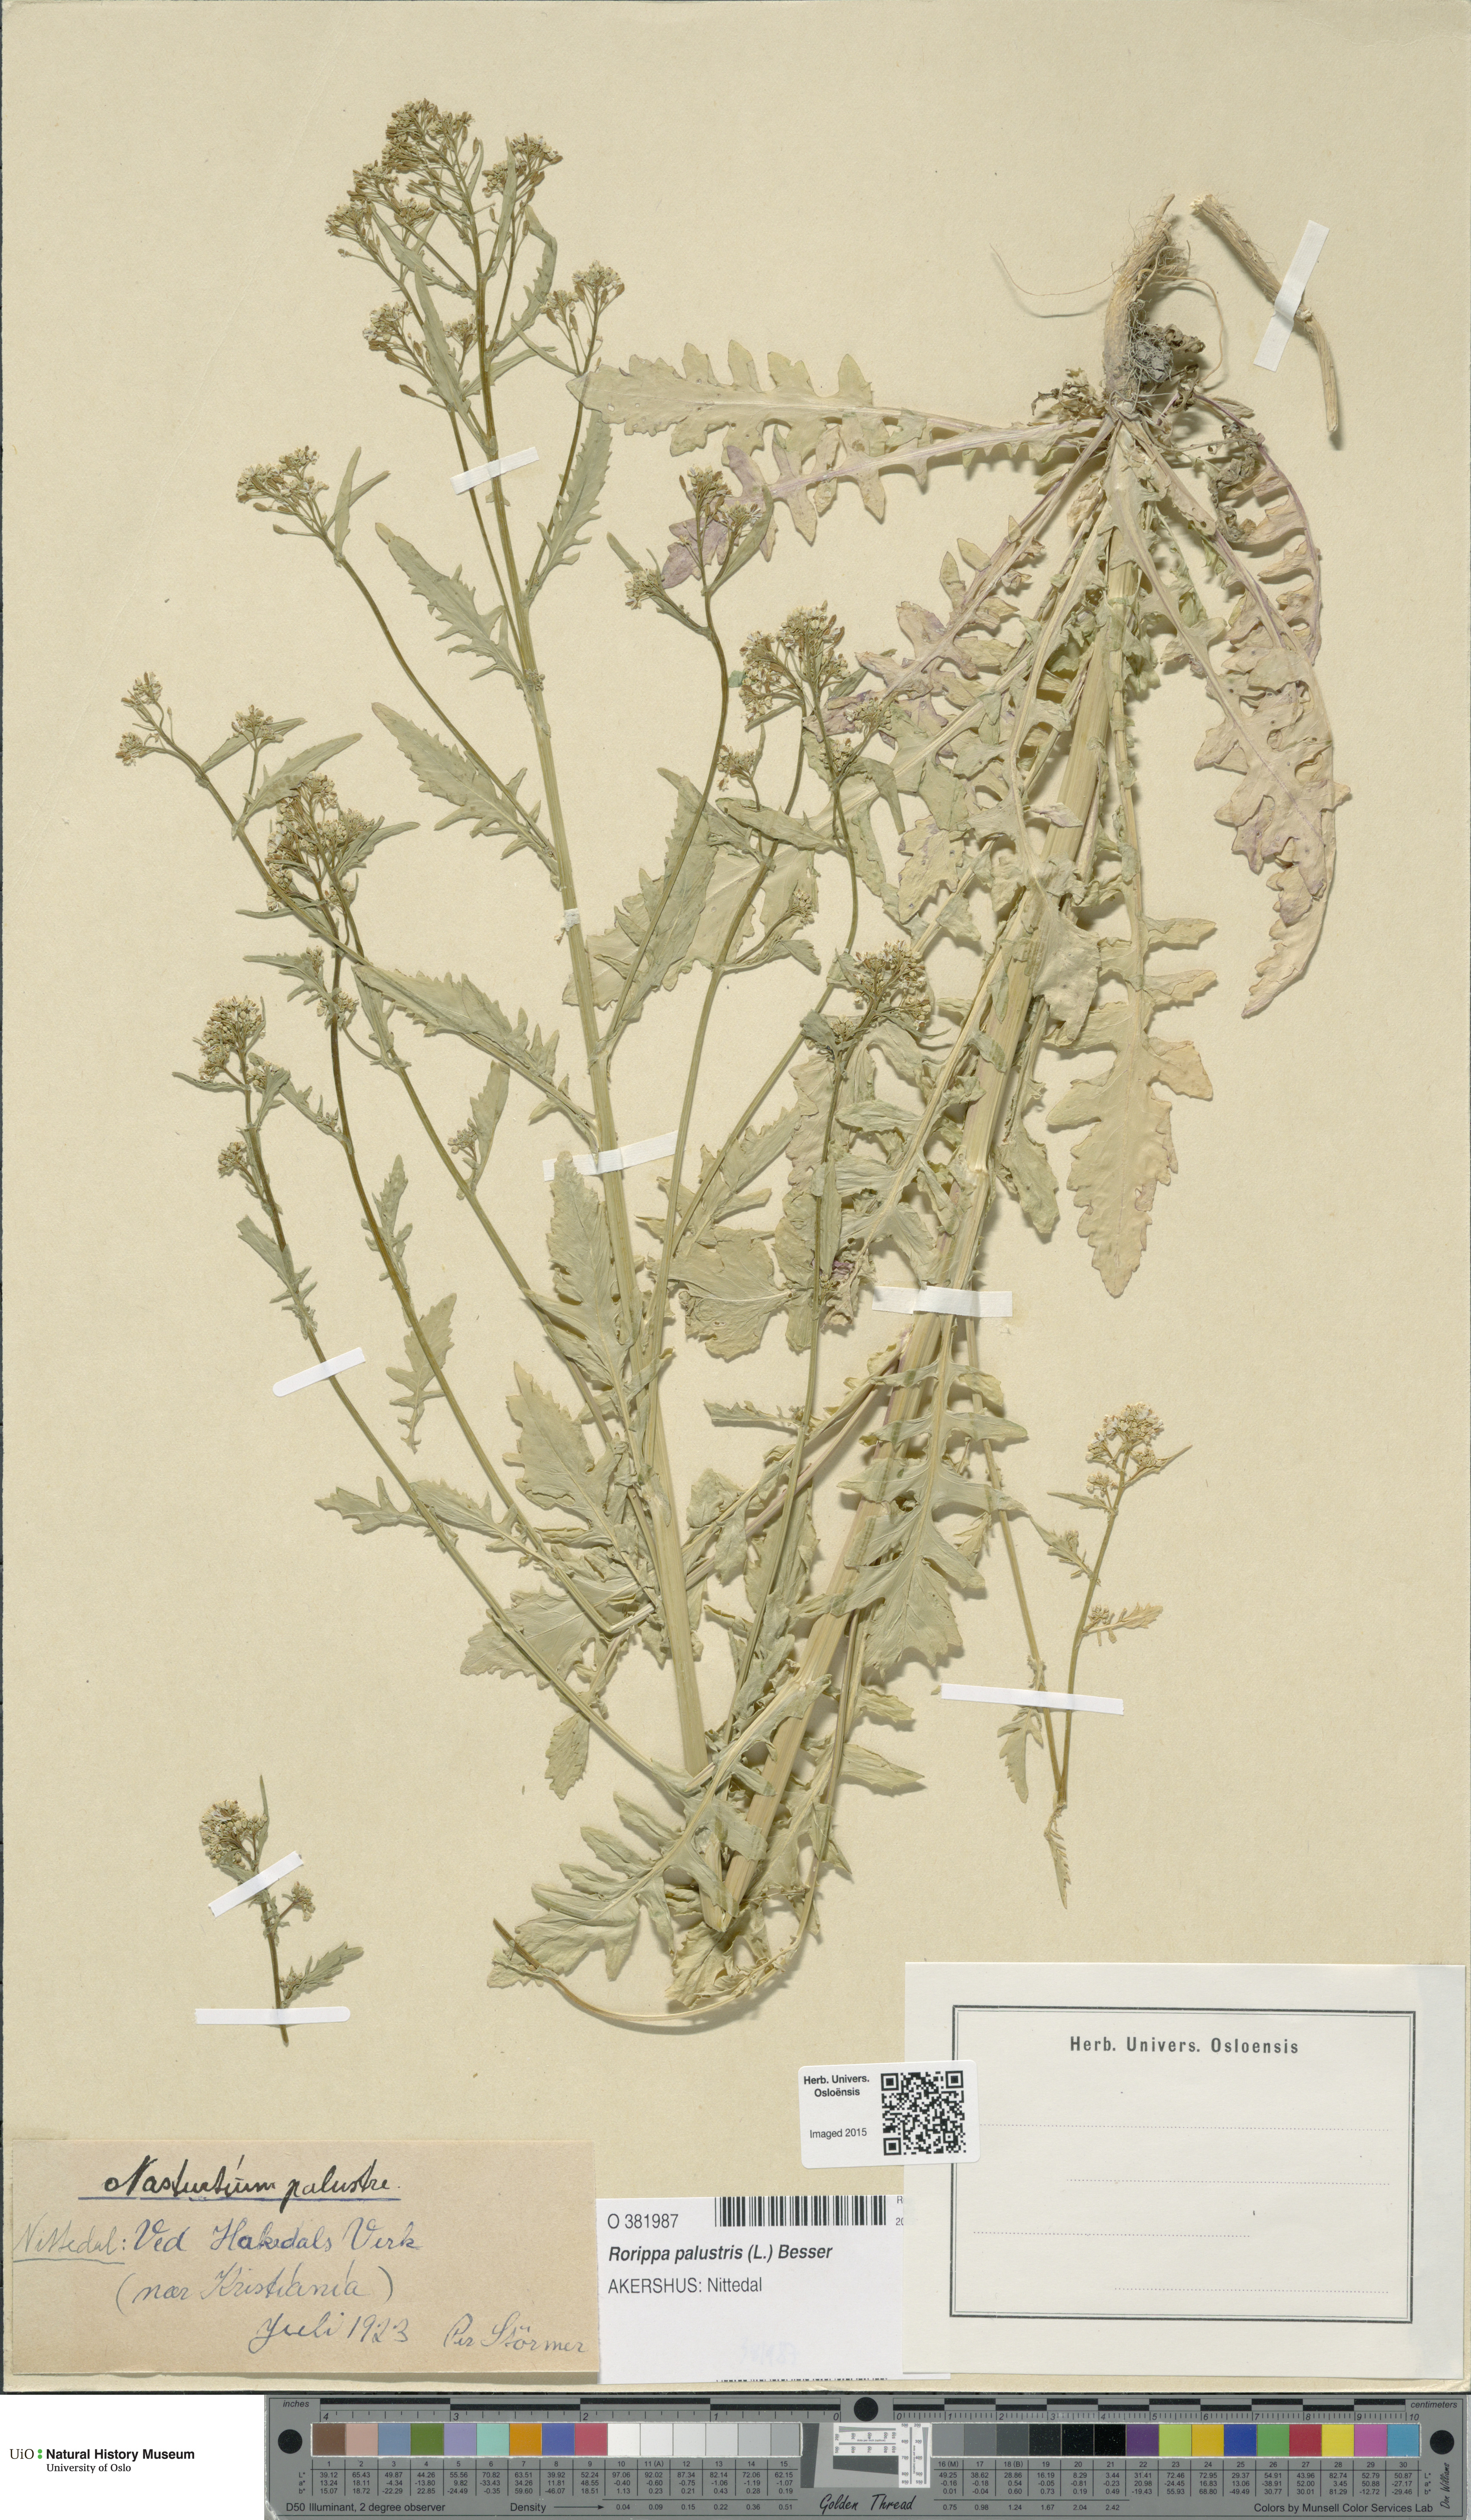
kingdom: Plantae
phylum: Tracheophyta
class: Magnoliopsida
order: Brassicales
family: Brassicaceae
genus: Rorippa
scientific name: Rorippa palustris
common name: Marsh yellow-cress
